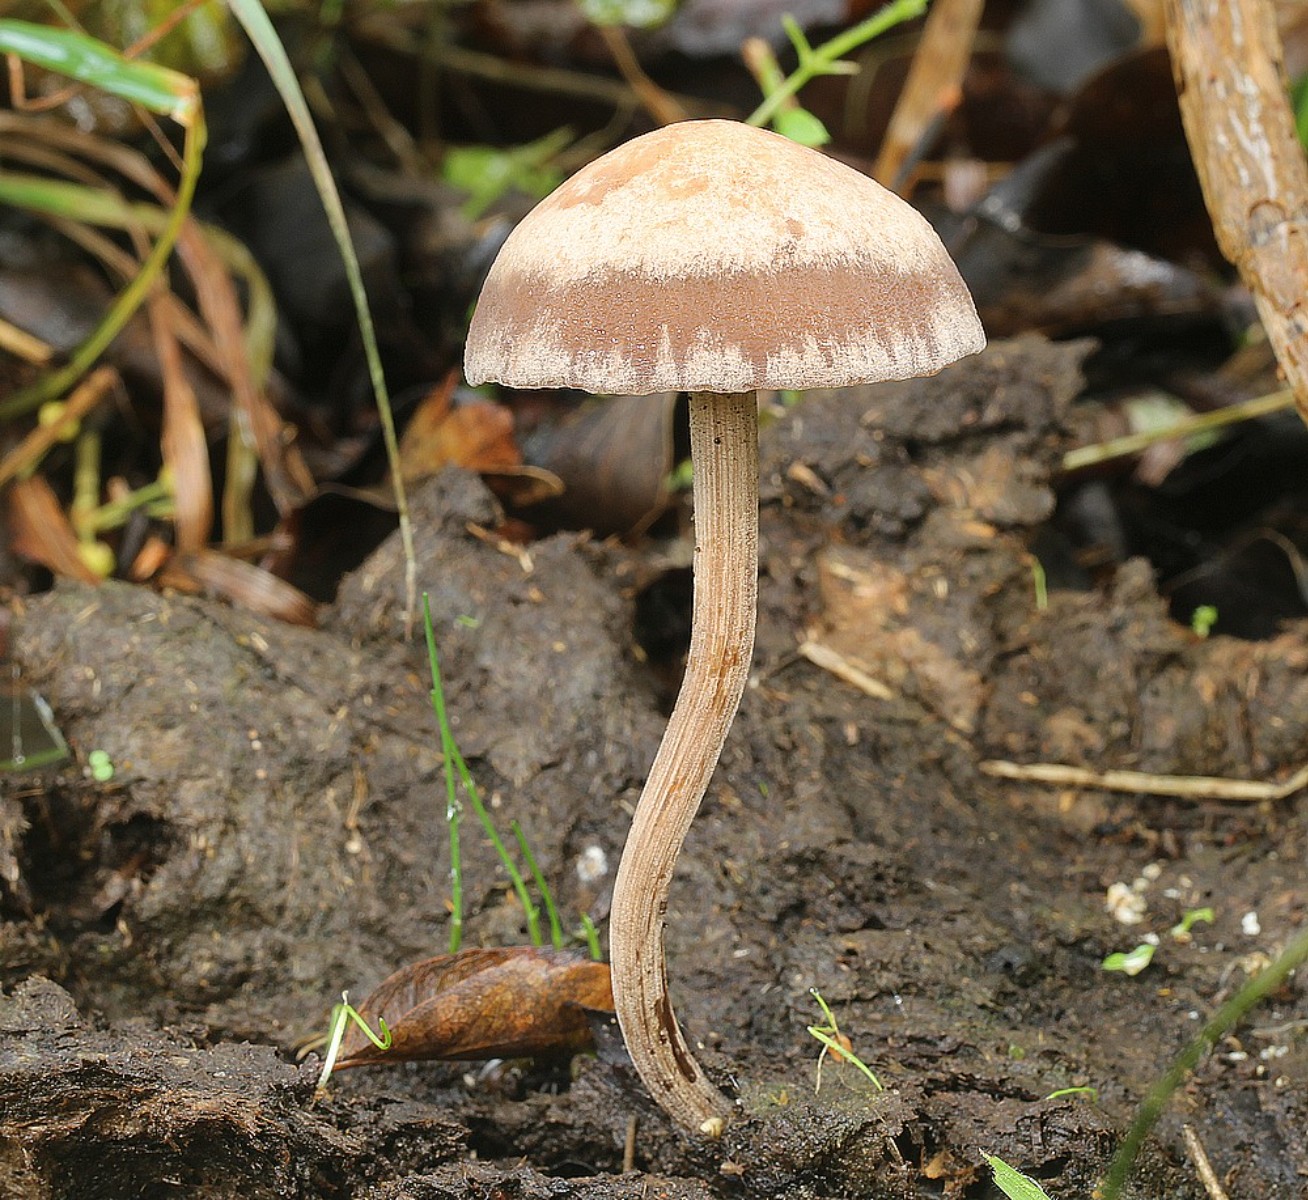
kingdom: Fungi
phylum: Basidiomycota
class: Agaricomycetes
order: Agaricales
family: Bolbitiaceae
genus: Panaeolus
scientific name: Panaeolus subfirmus
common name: fælled-glanshat
